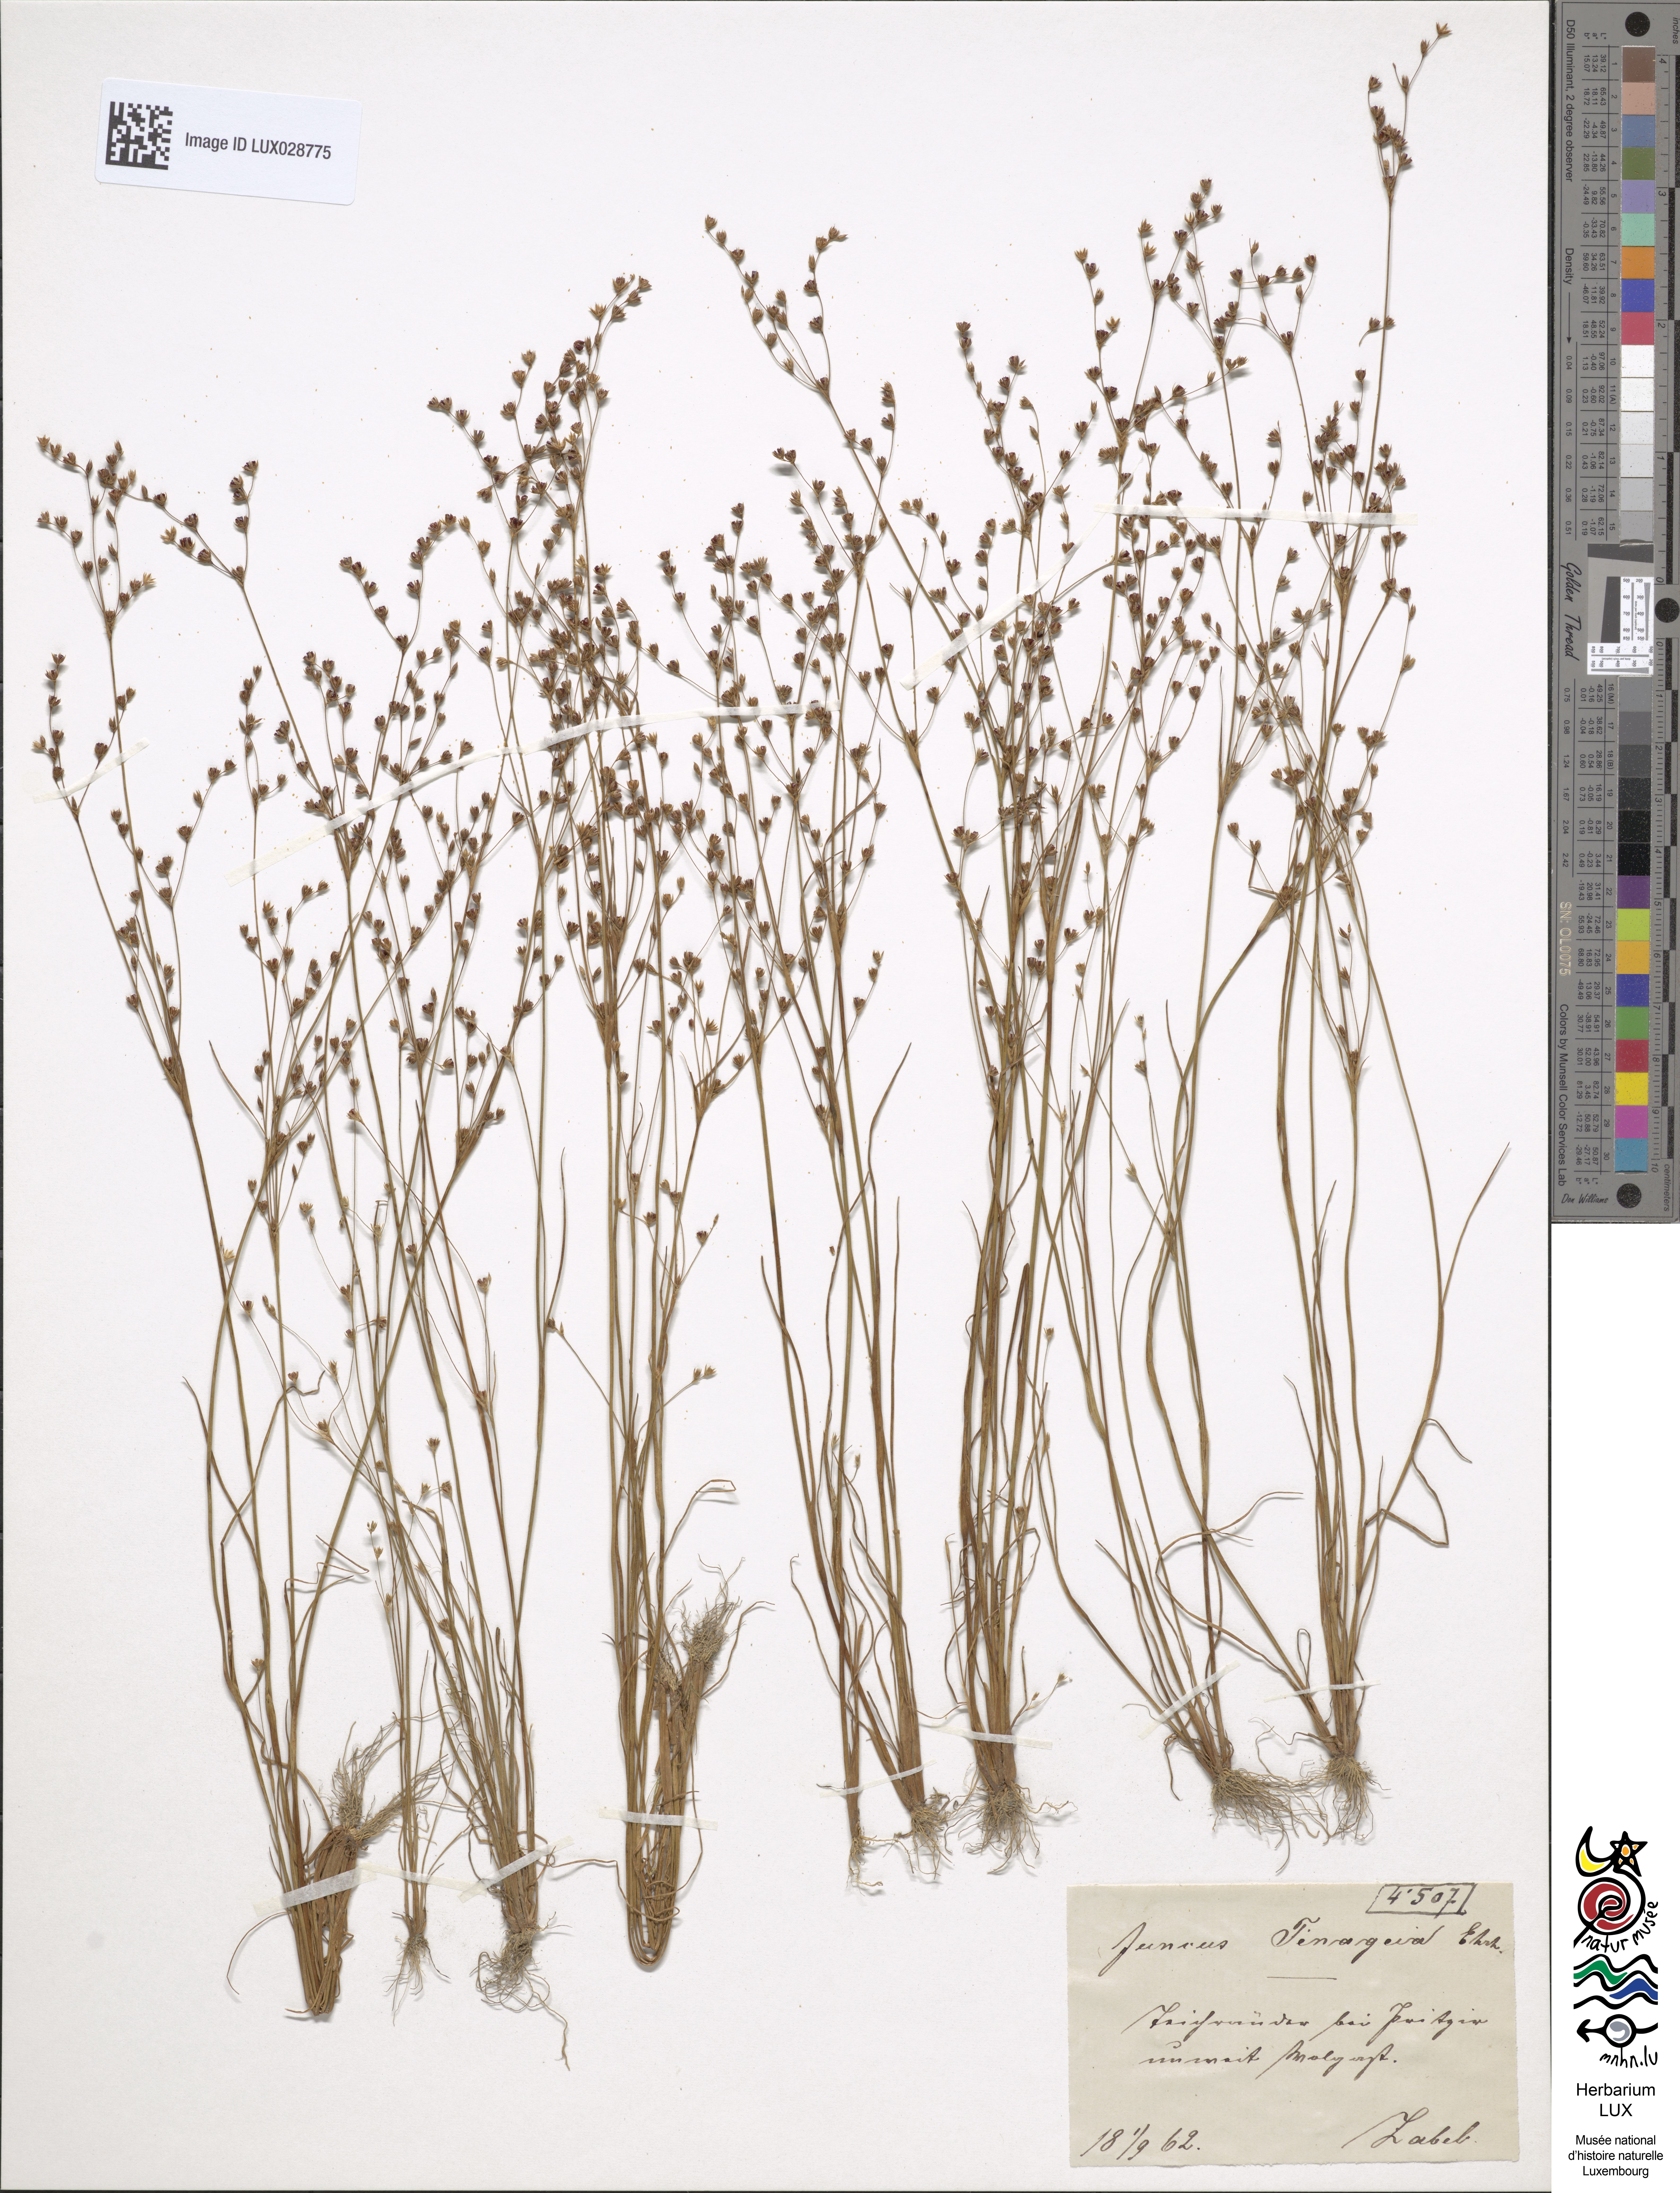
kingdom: Plantae
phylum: Tracheophyta
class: Liliopsida
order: Poales
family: Juncaceae
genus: Juncus
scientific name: Juncus tenageia
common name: Sand rush
